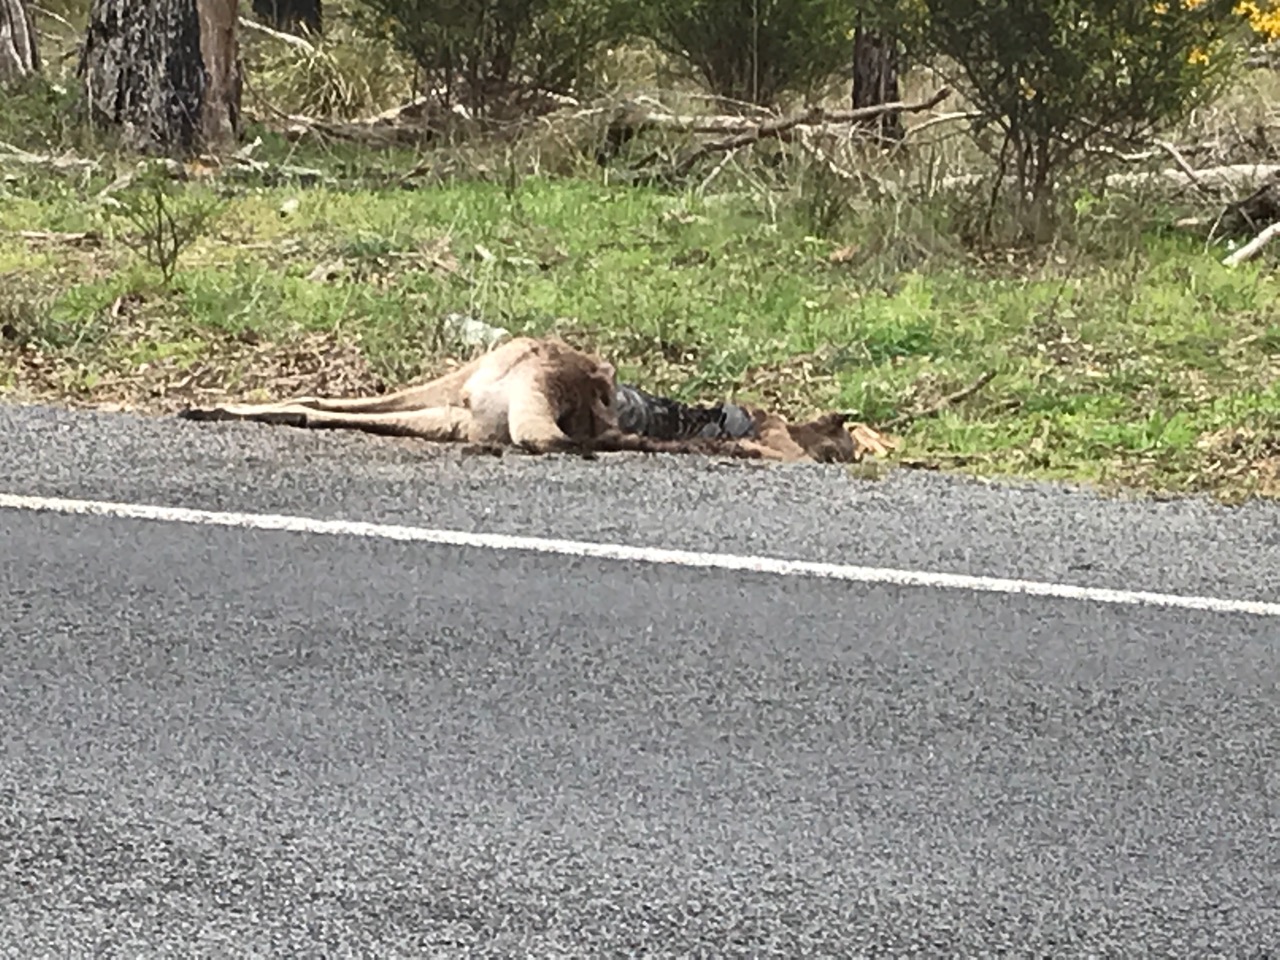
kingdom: Animalia
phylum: Chordata
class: Mammalia
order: Diprotodontia
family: Macropodidae
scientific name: Macropodidae
